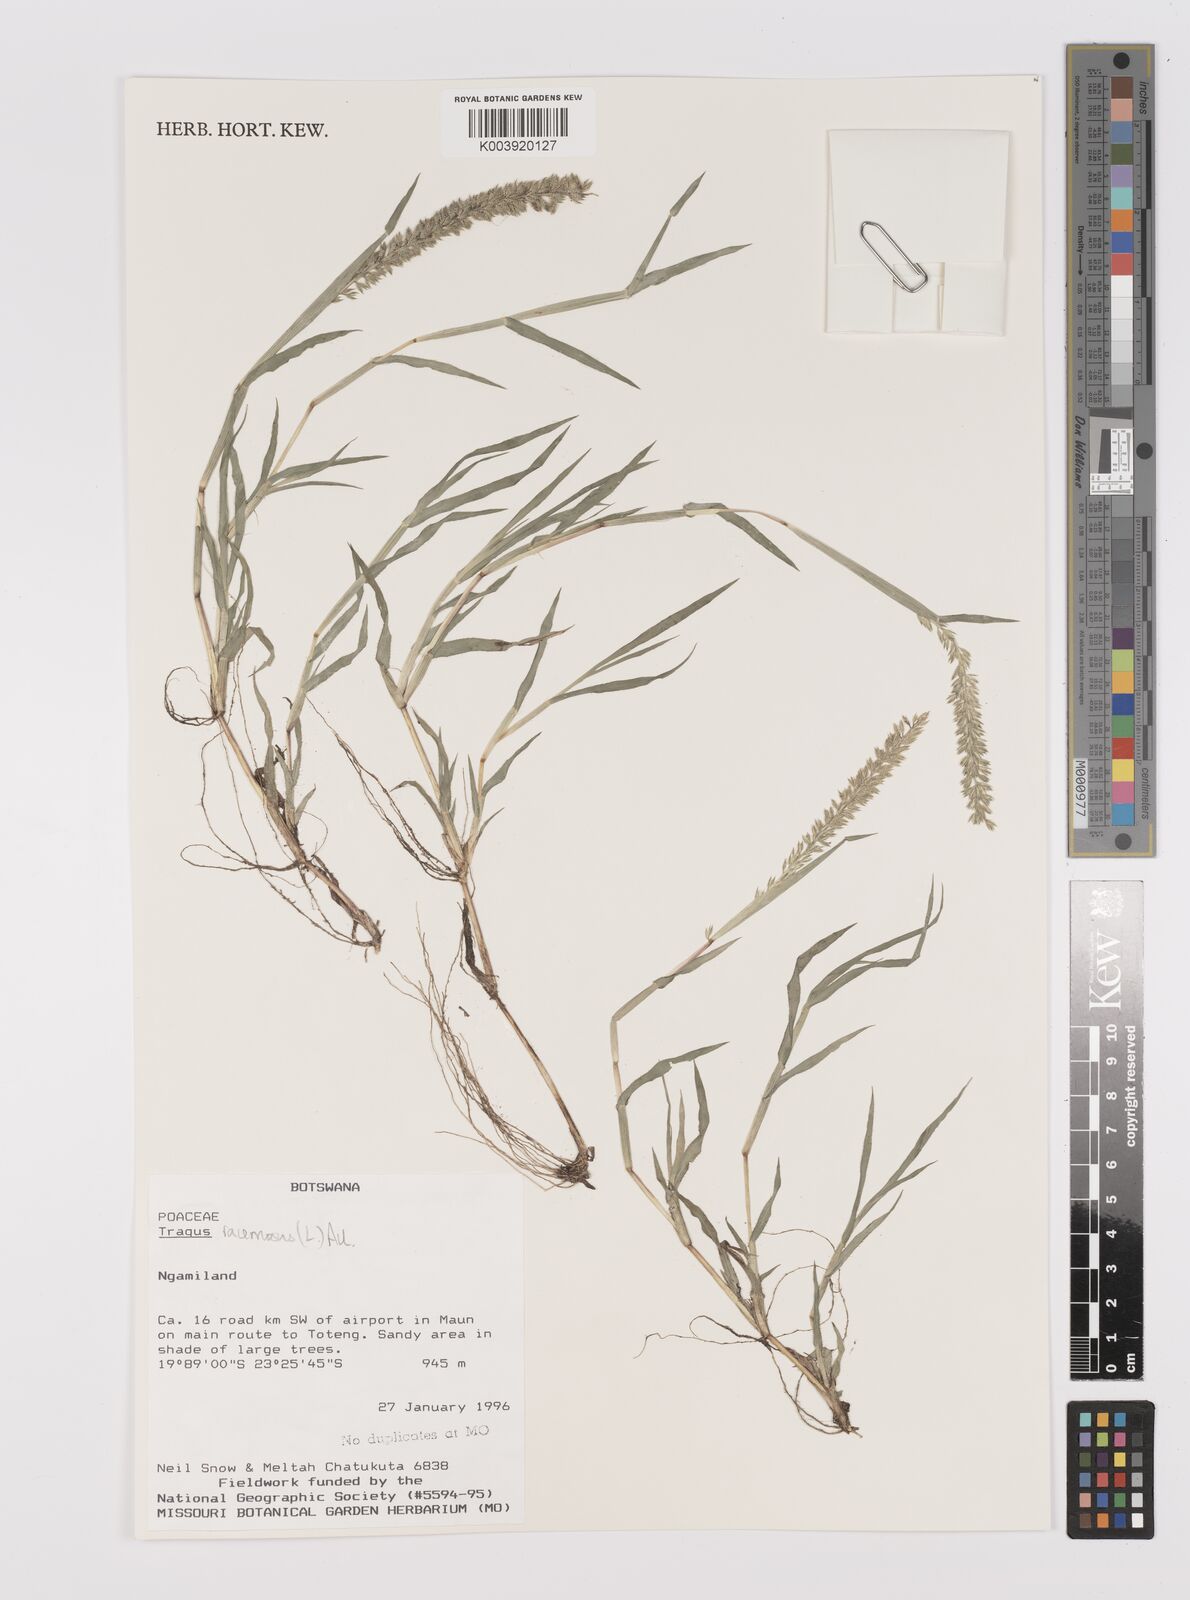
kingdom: Plantae
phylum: Tracheophyta
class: Liliopsida
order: Poales
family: Poaceae
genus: Tragus
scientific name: Tragus racemosus
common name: European bur-grass
